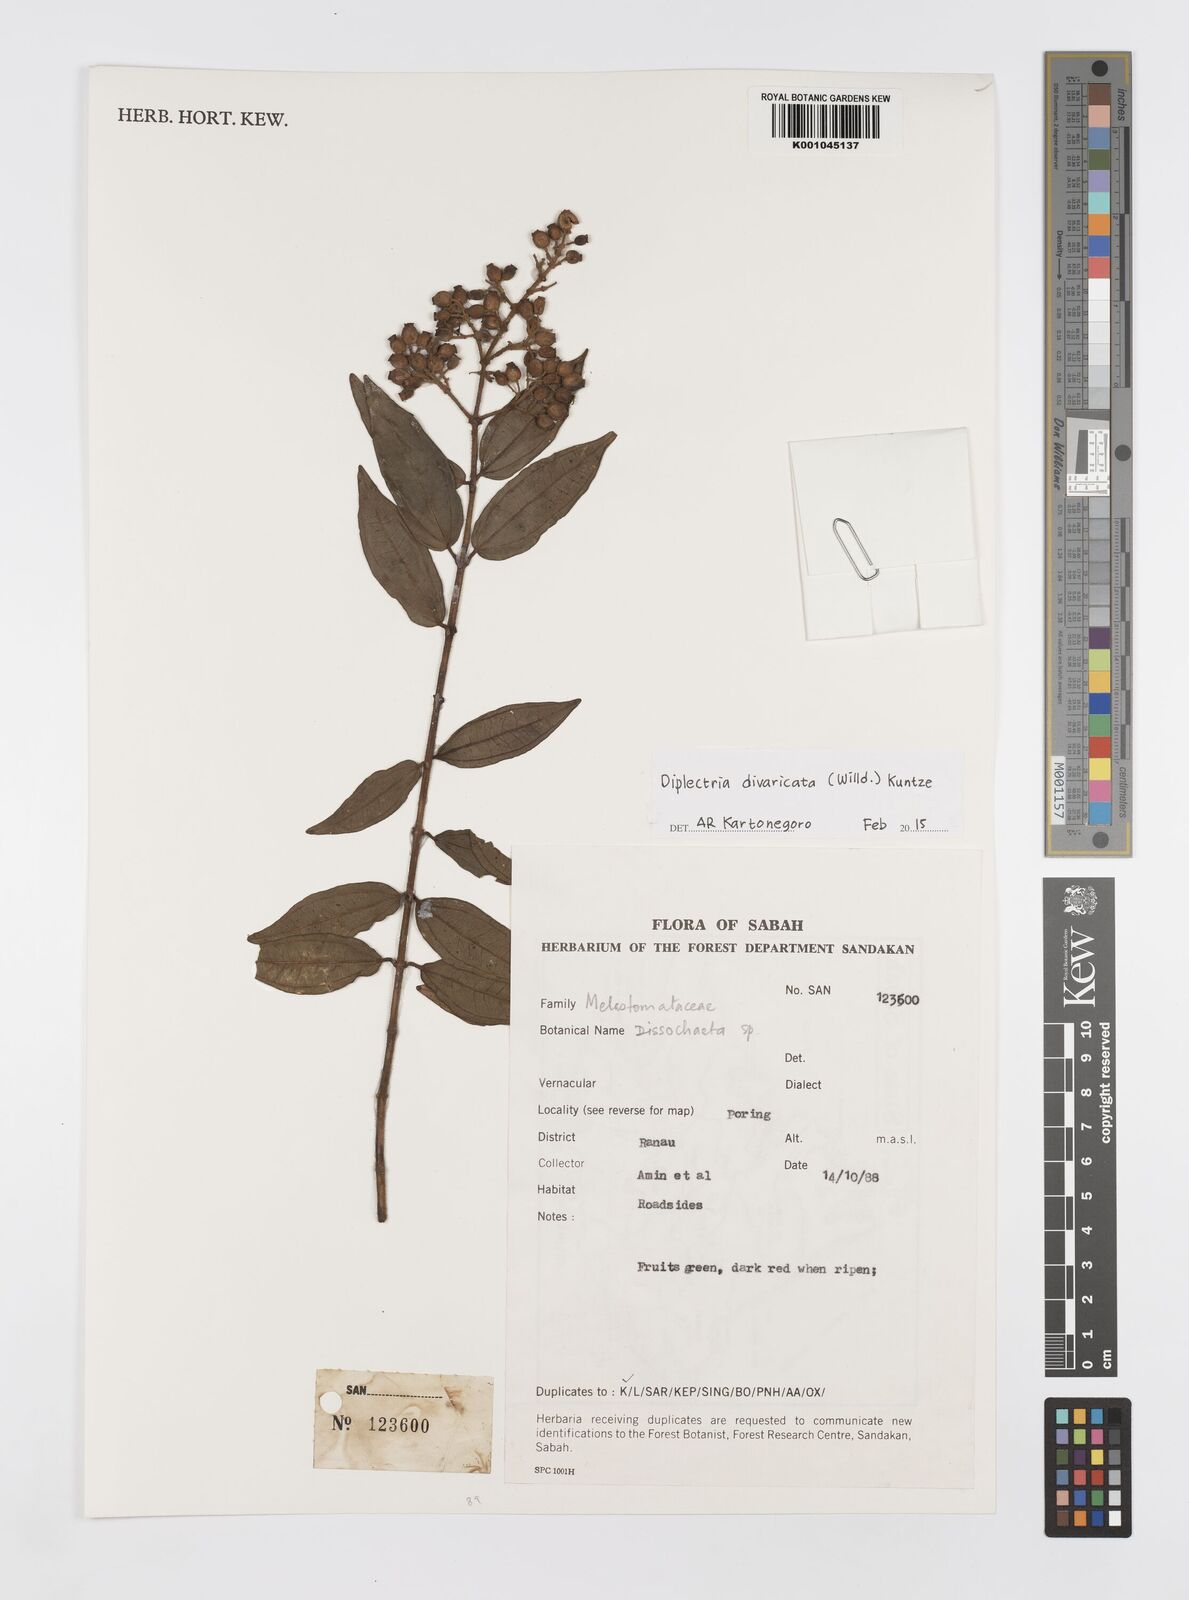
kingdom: Plantae
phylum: Tracheophyta
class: Magnoliopsida
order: Myrtales
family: Melastomataceae
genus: Diplectria
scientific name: Diplectria divaricata
